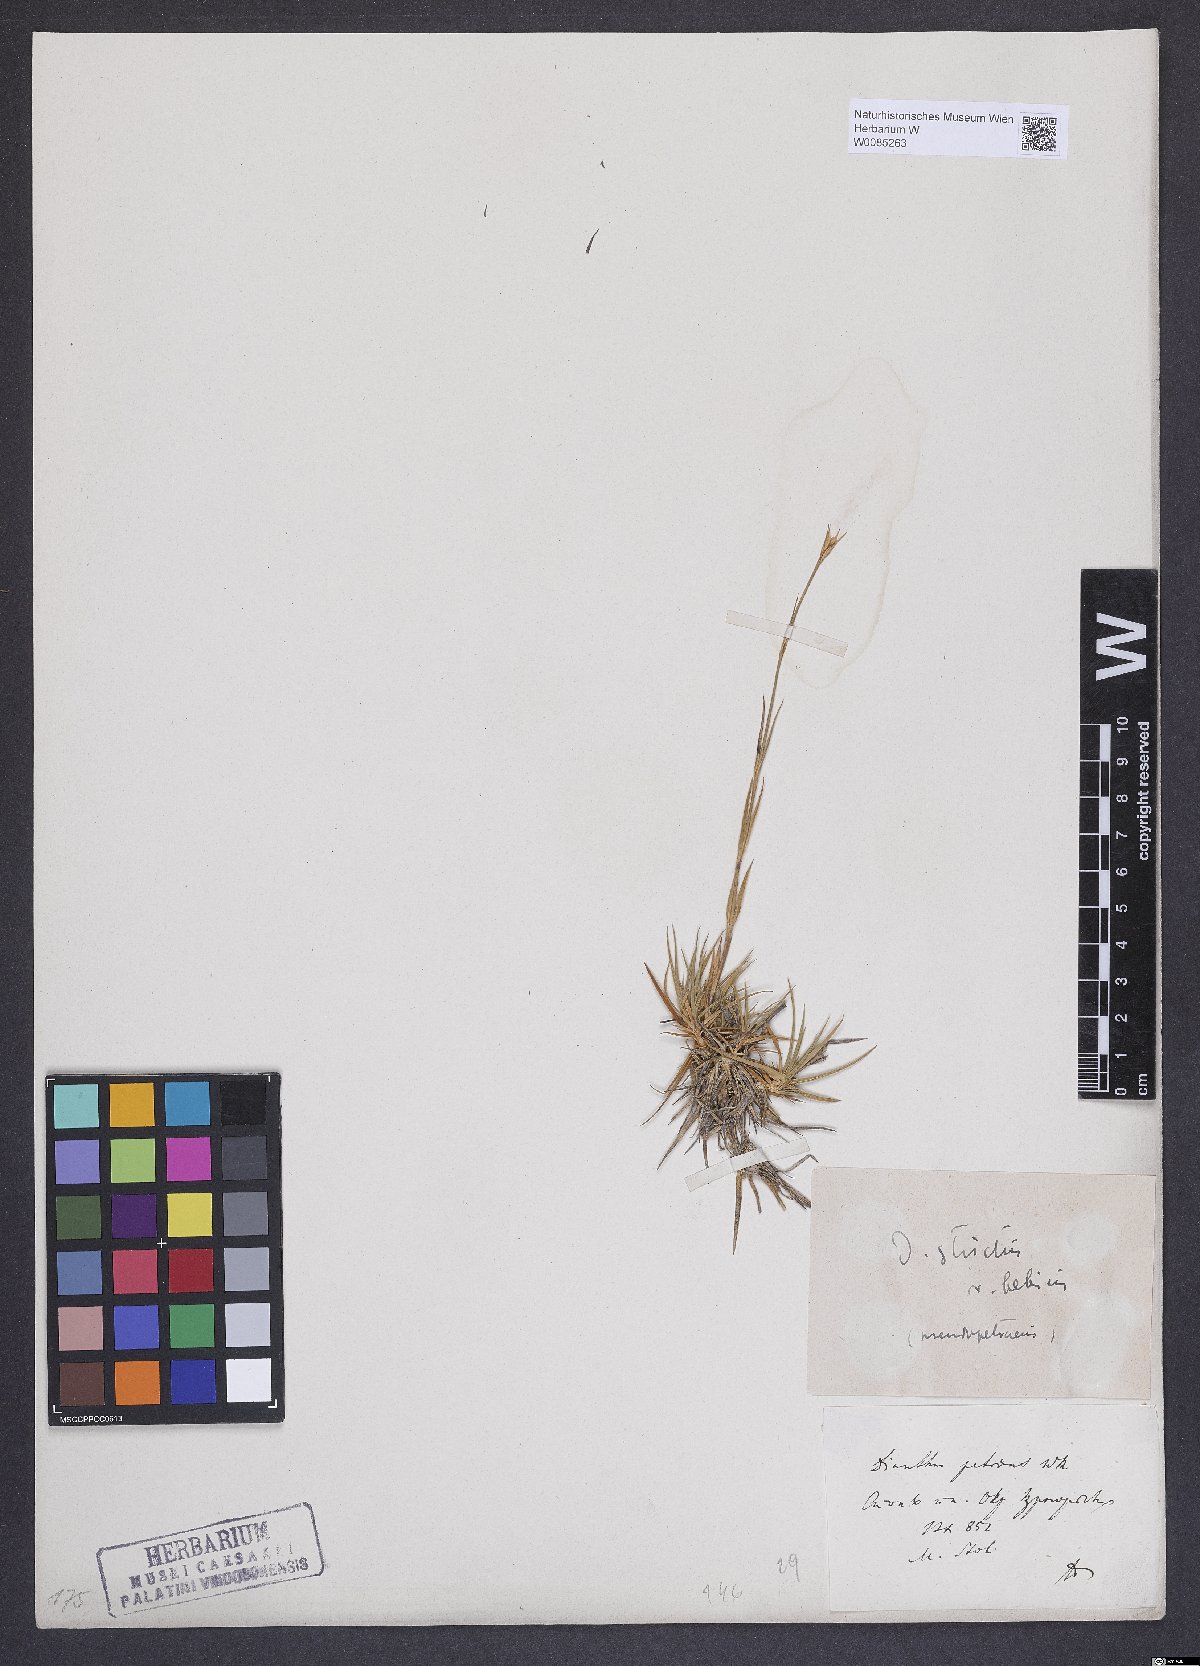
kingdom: Plantae
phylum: Tracheophyta
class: Magnoliopsida
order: Caryophyllales
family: Caryophyllaceae
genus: Dianthus
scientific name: Dianthus petraeus
